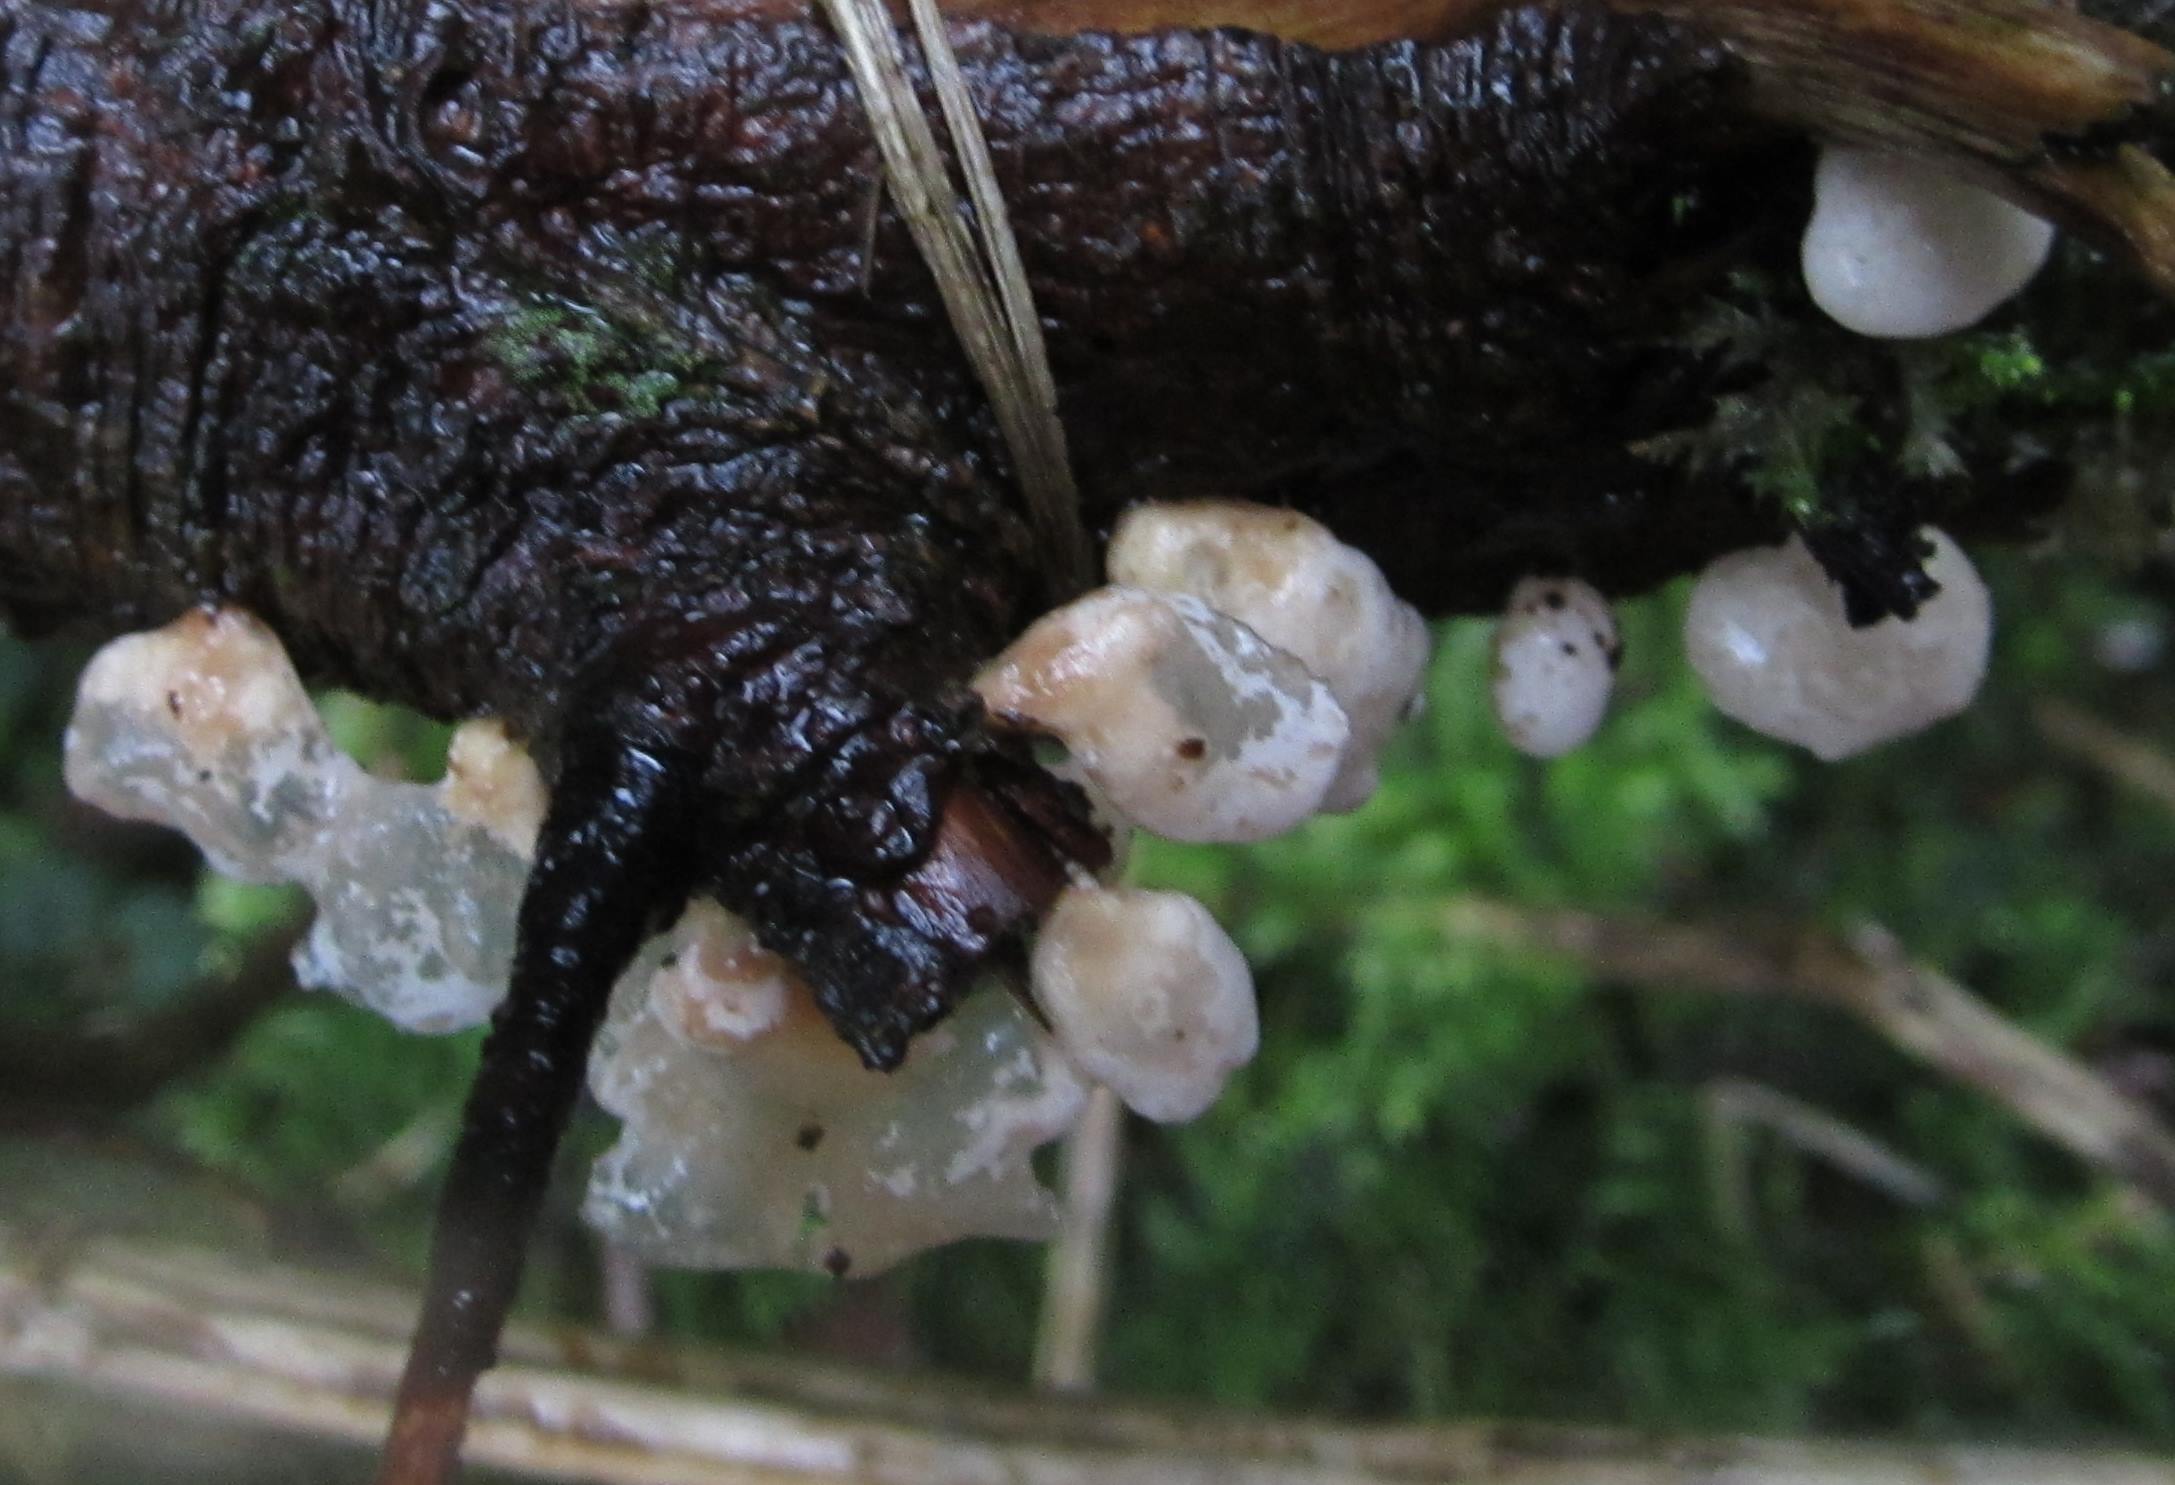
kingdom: Fungi
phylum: Basidiomycota
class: Agaricomycetes
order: Agaricales
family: Mycenaceae
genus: Panellus
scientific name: Panellus mitis
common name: mild epaulethat
